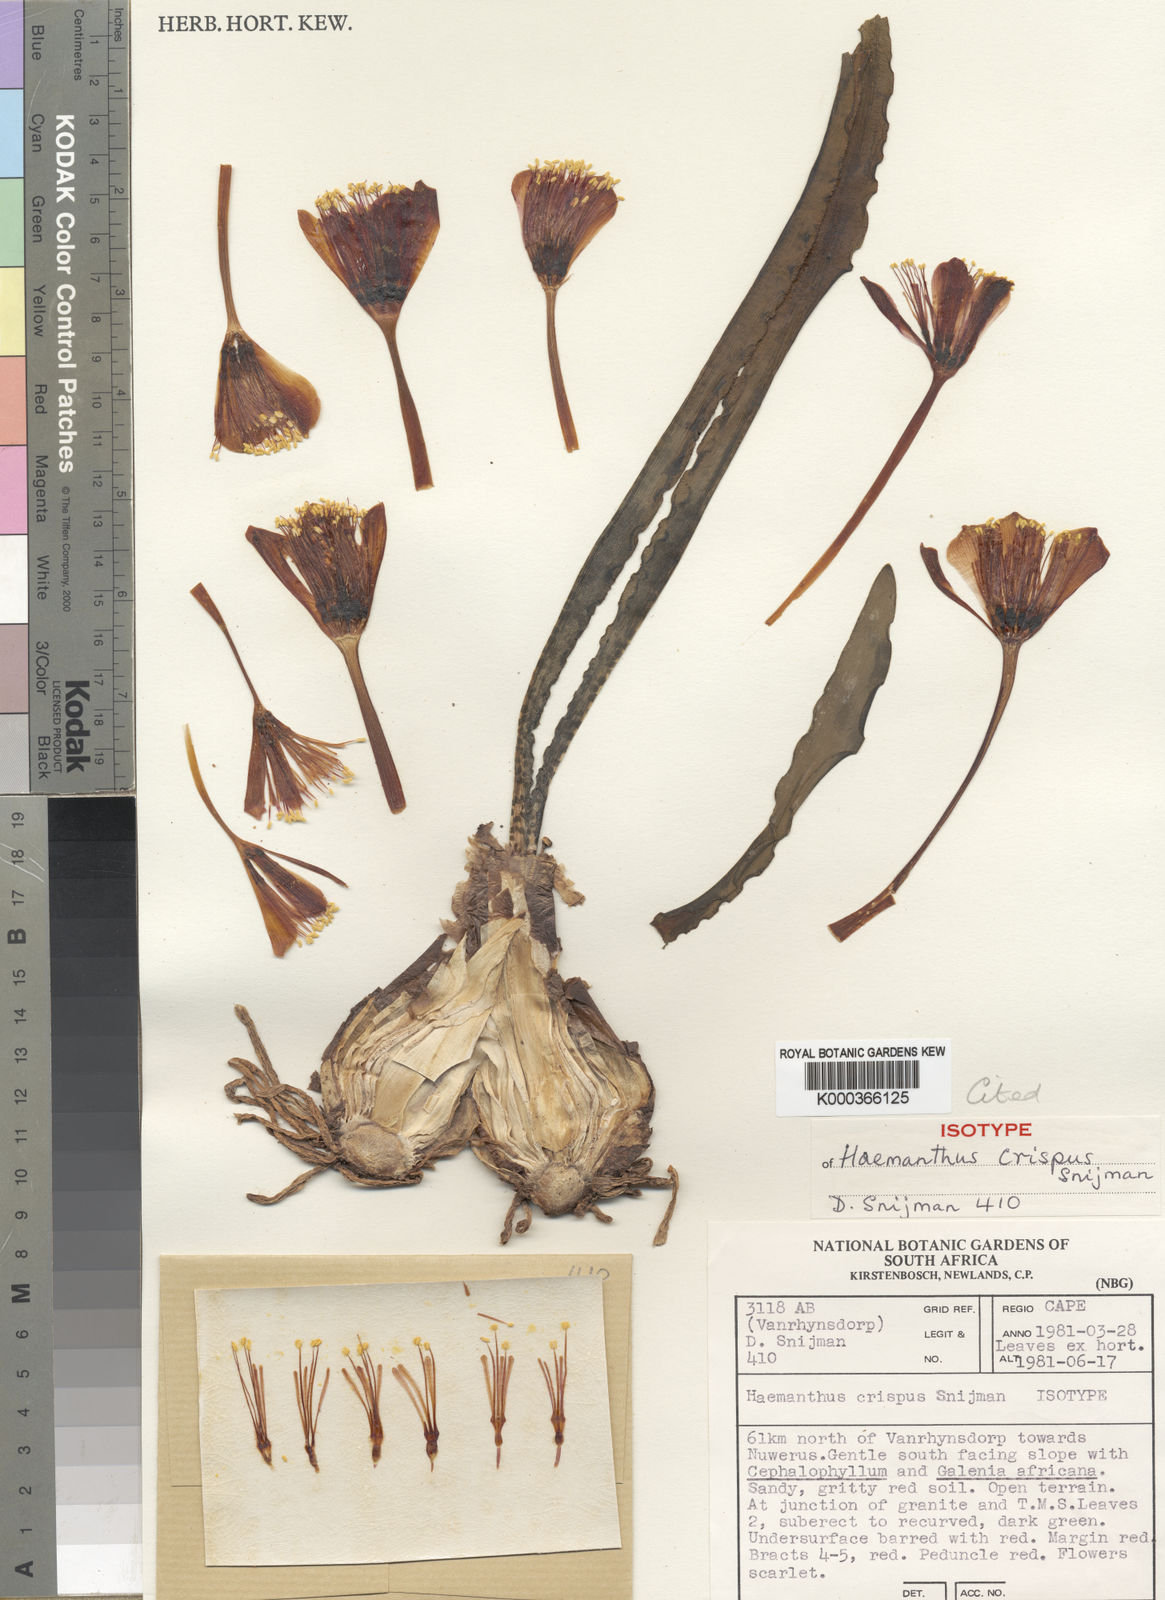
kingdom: Plantae
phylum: Tracheophyta
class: Liliopsida
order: Asparagales
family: Amaryllidaceae
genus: Haemanthus
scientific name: Haemanthus crispus
